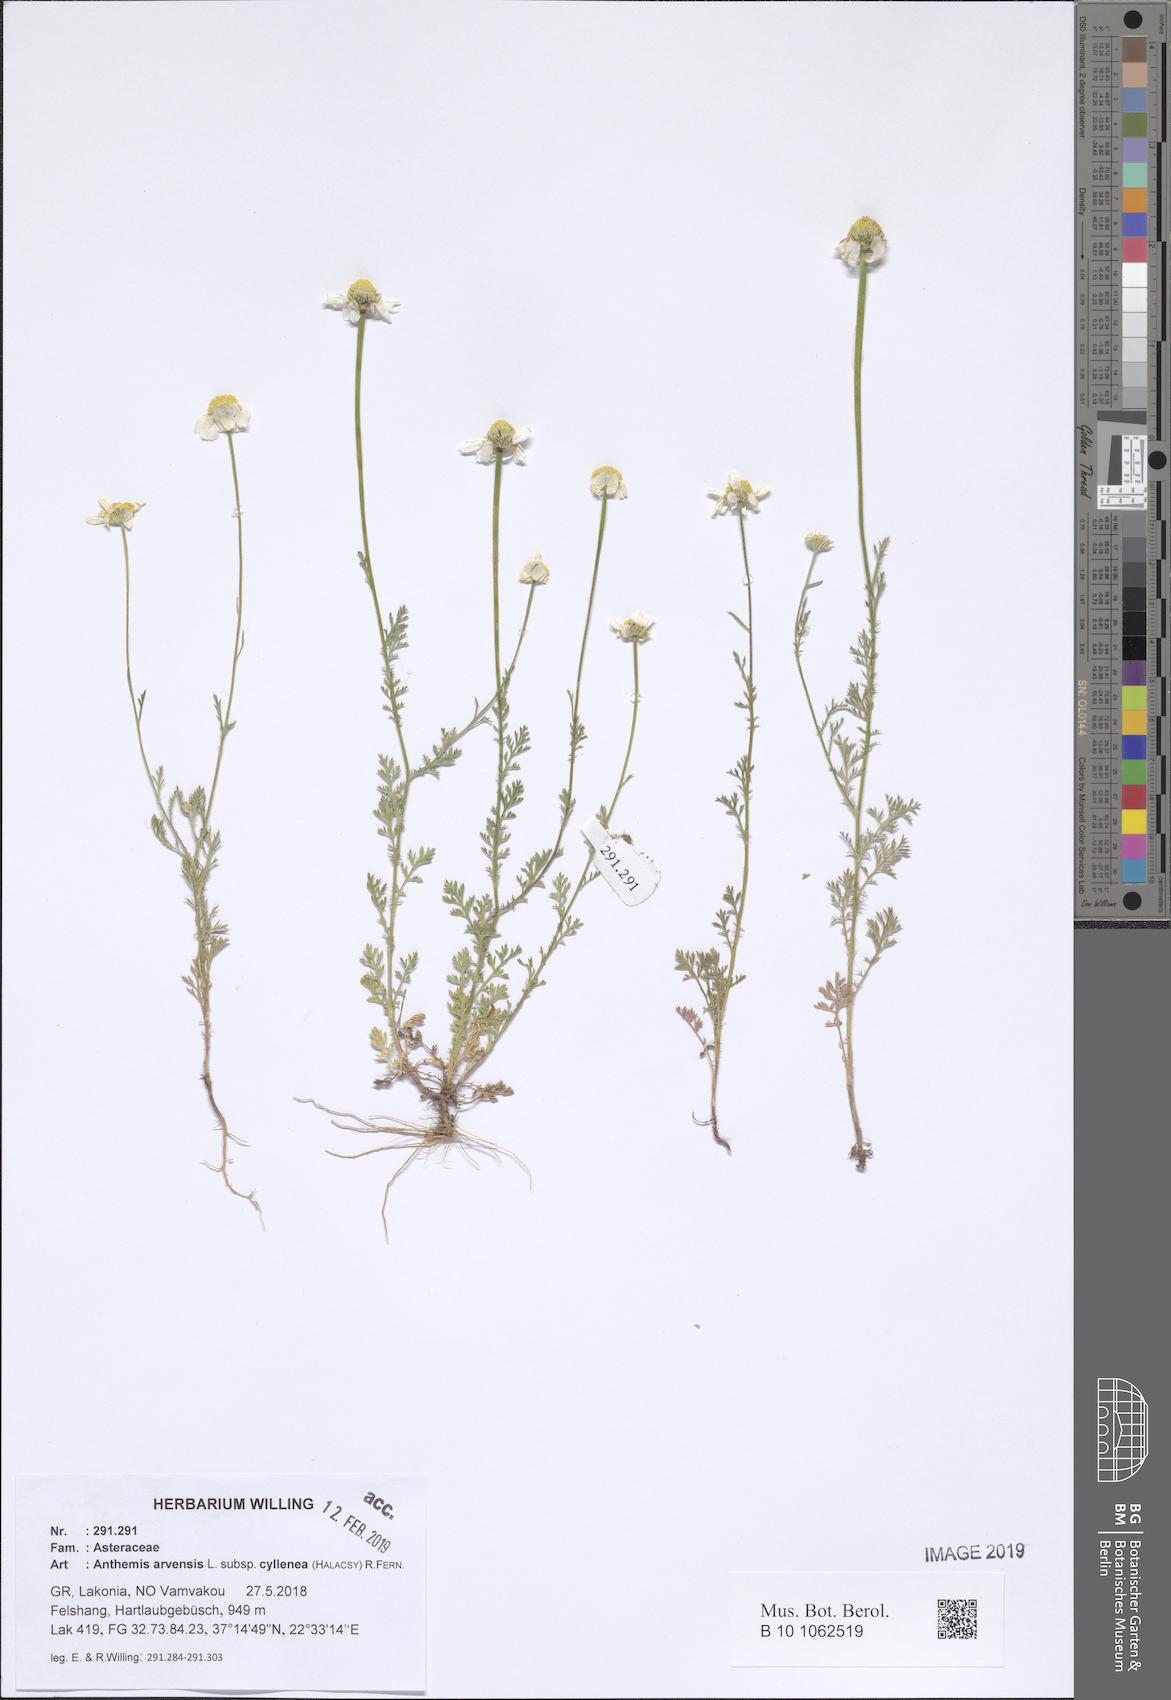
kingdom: Plantae
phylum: Tracheophyta
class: Magnoliopsida
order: Asterales
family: Asteraceae
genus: Anthemis
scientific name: Anthemis arvensis
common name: Corn chamomile
